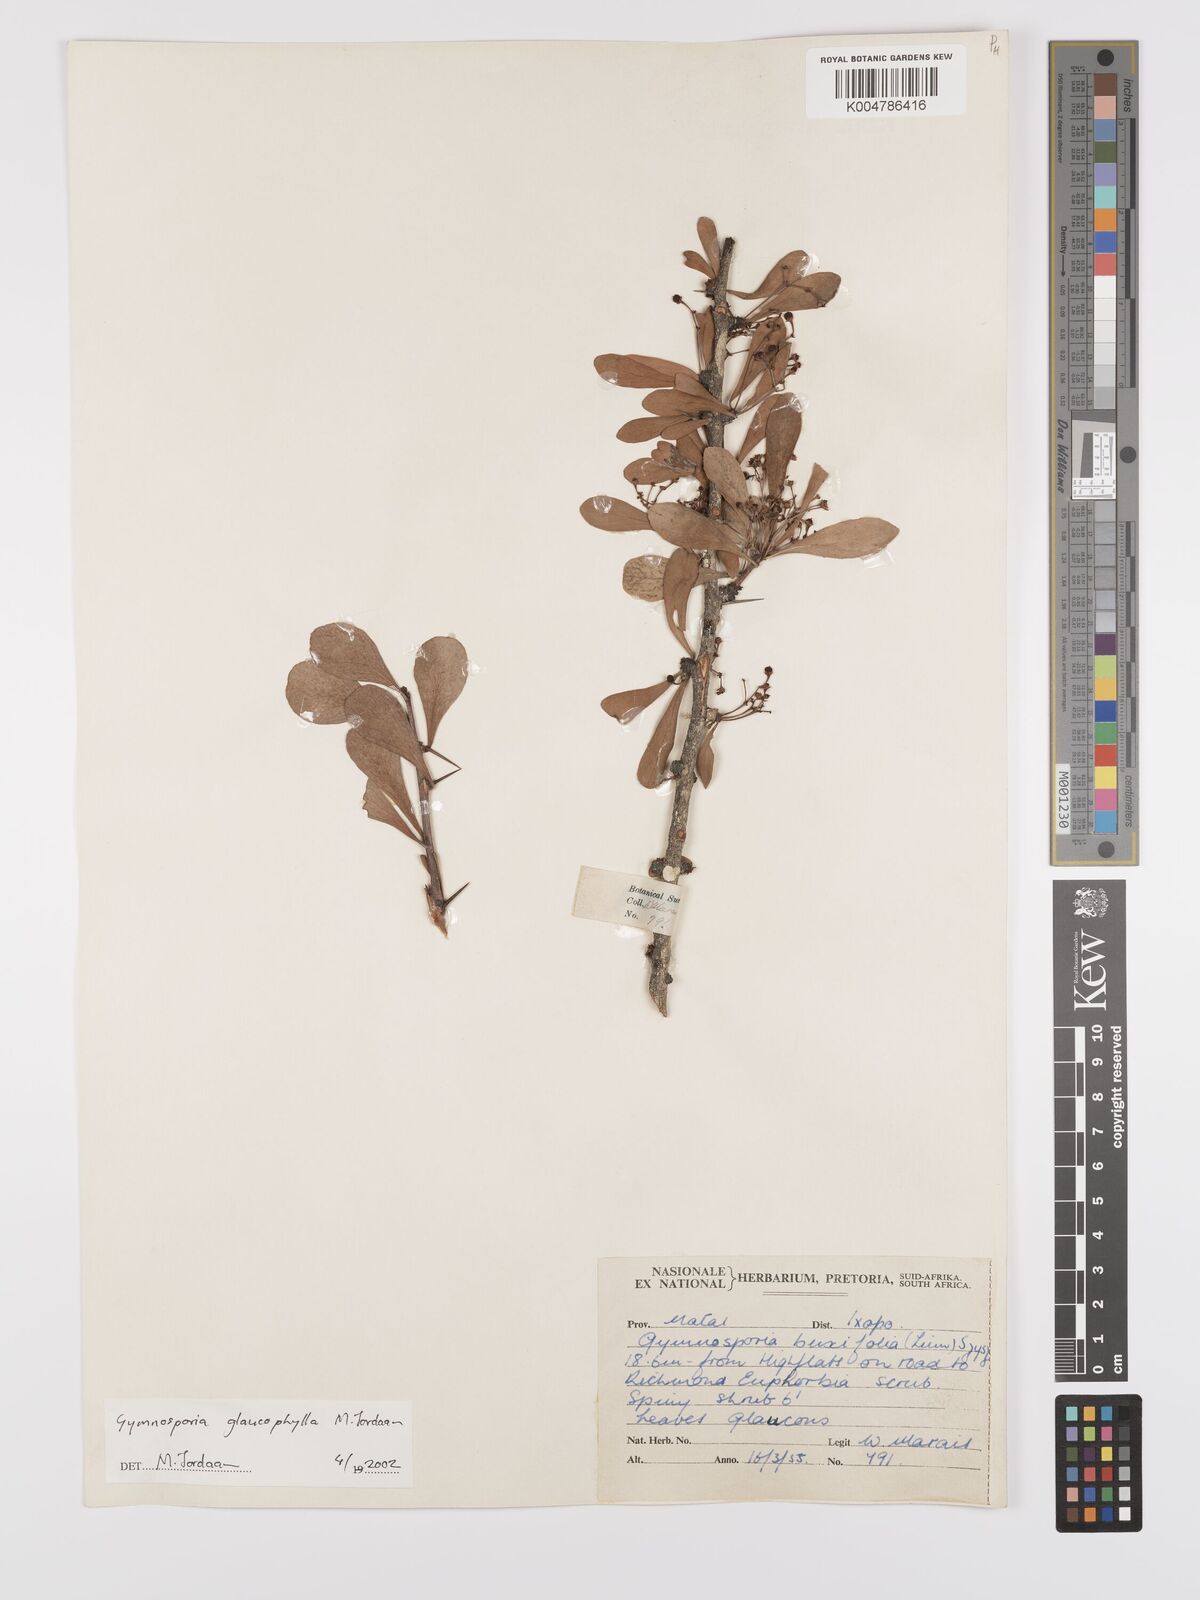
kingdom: Plantae
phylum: Tracheophyta
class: Magnoliopsida
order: Celastrales
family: Celastraceae
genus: Gymnosporia
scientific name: Gymnosporia glaucophylla
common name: Blue spike-thorn
